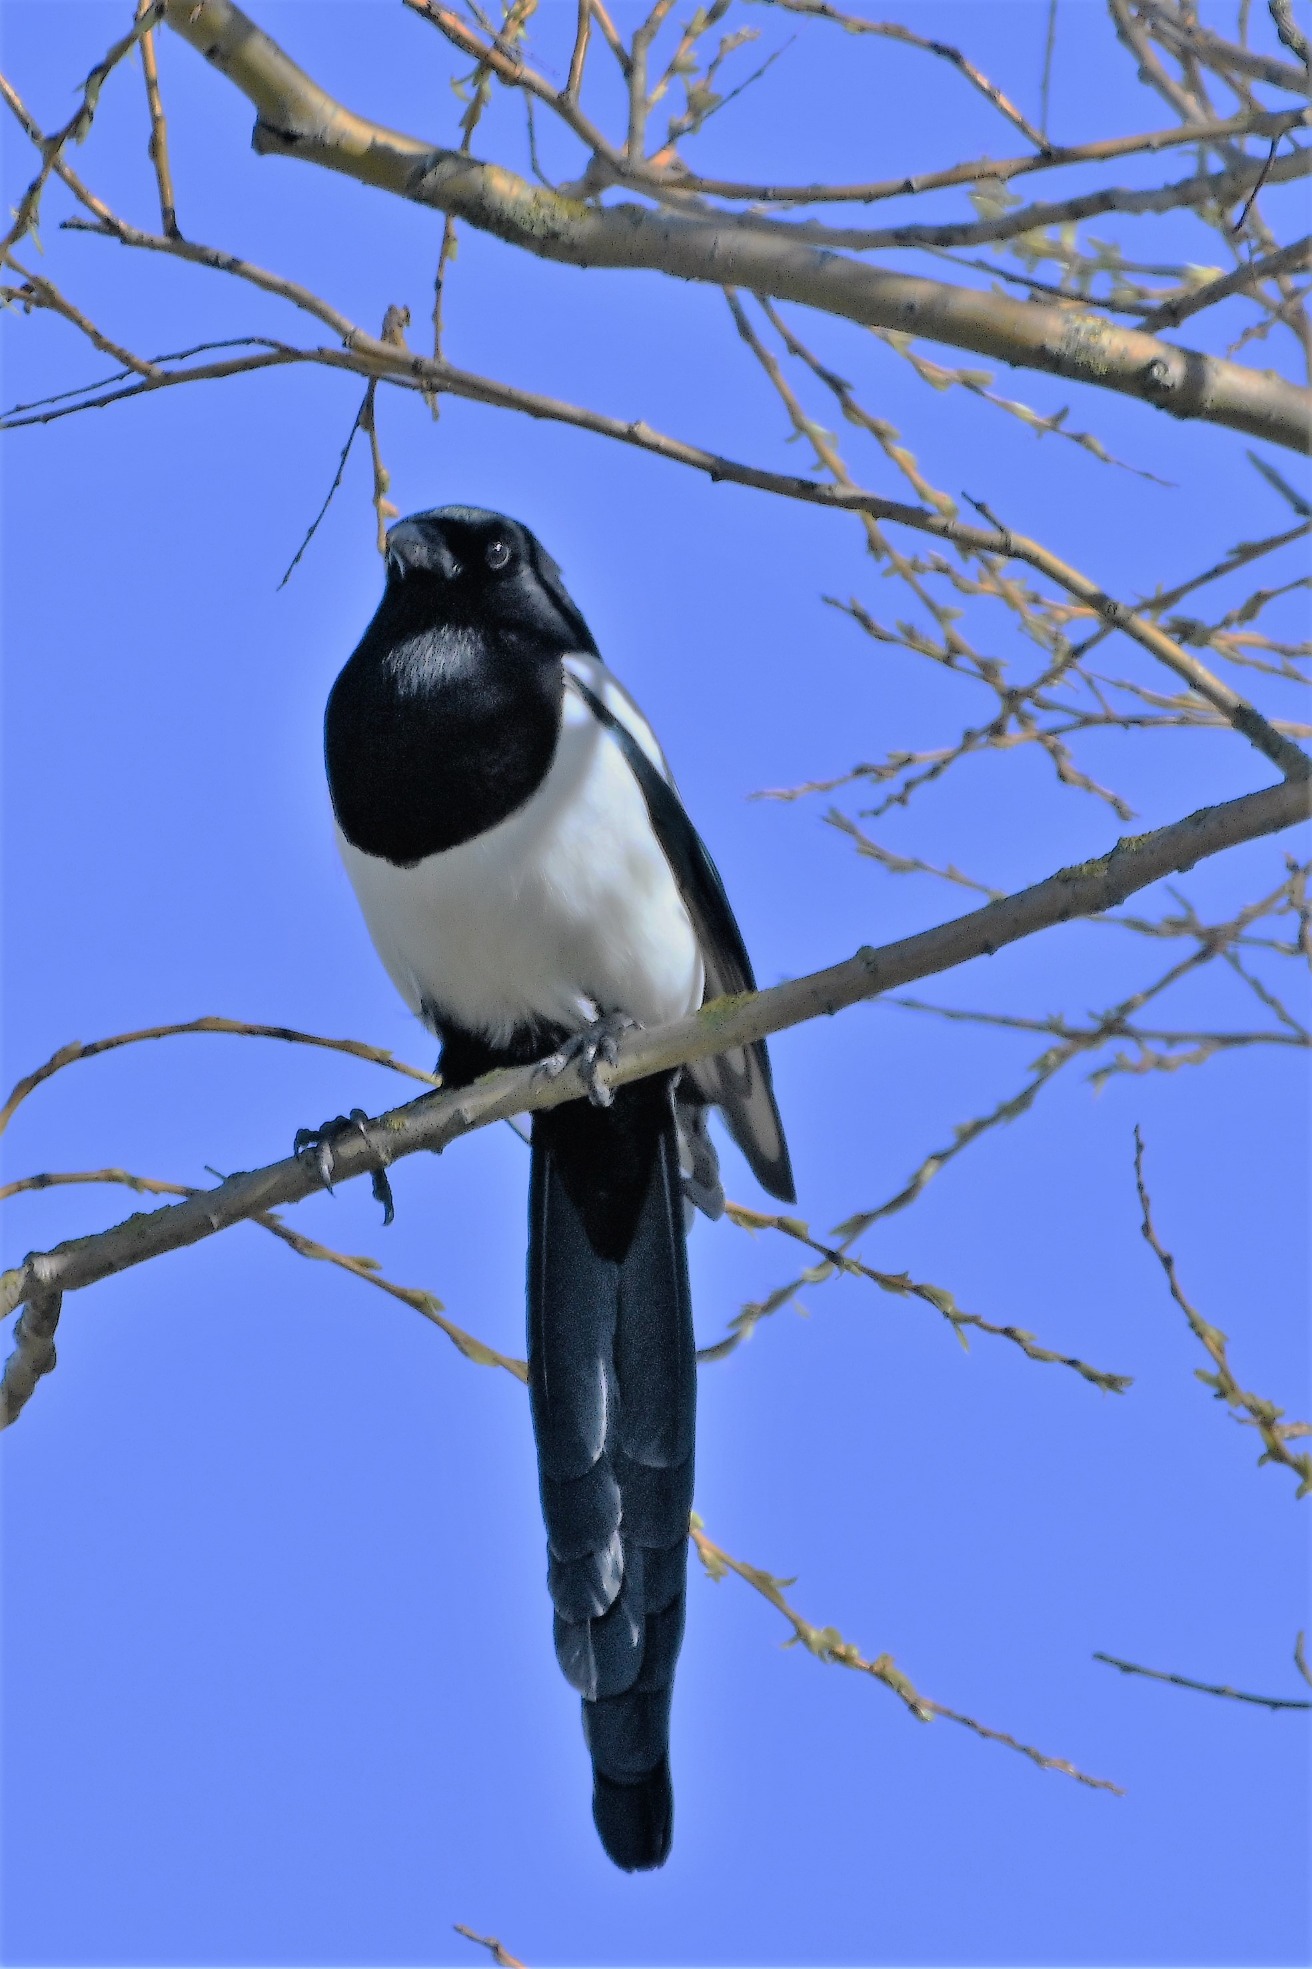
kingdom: Animalia
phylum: Chordata
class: Aves
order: Passeriformes
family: Corvidae
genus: Pica
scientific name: Pica pica
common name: Husskade
